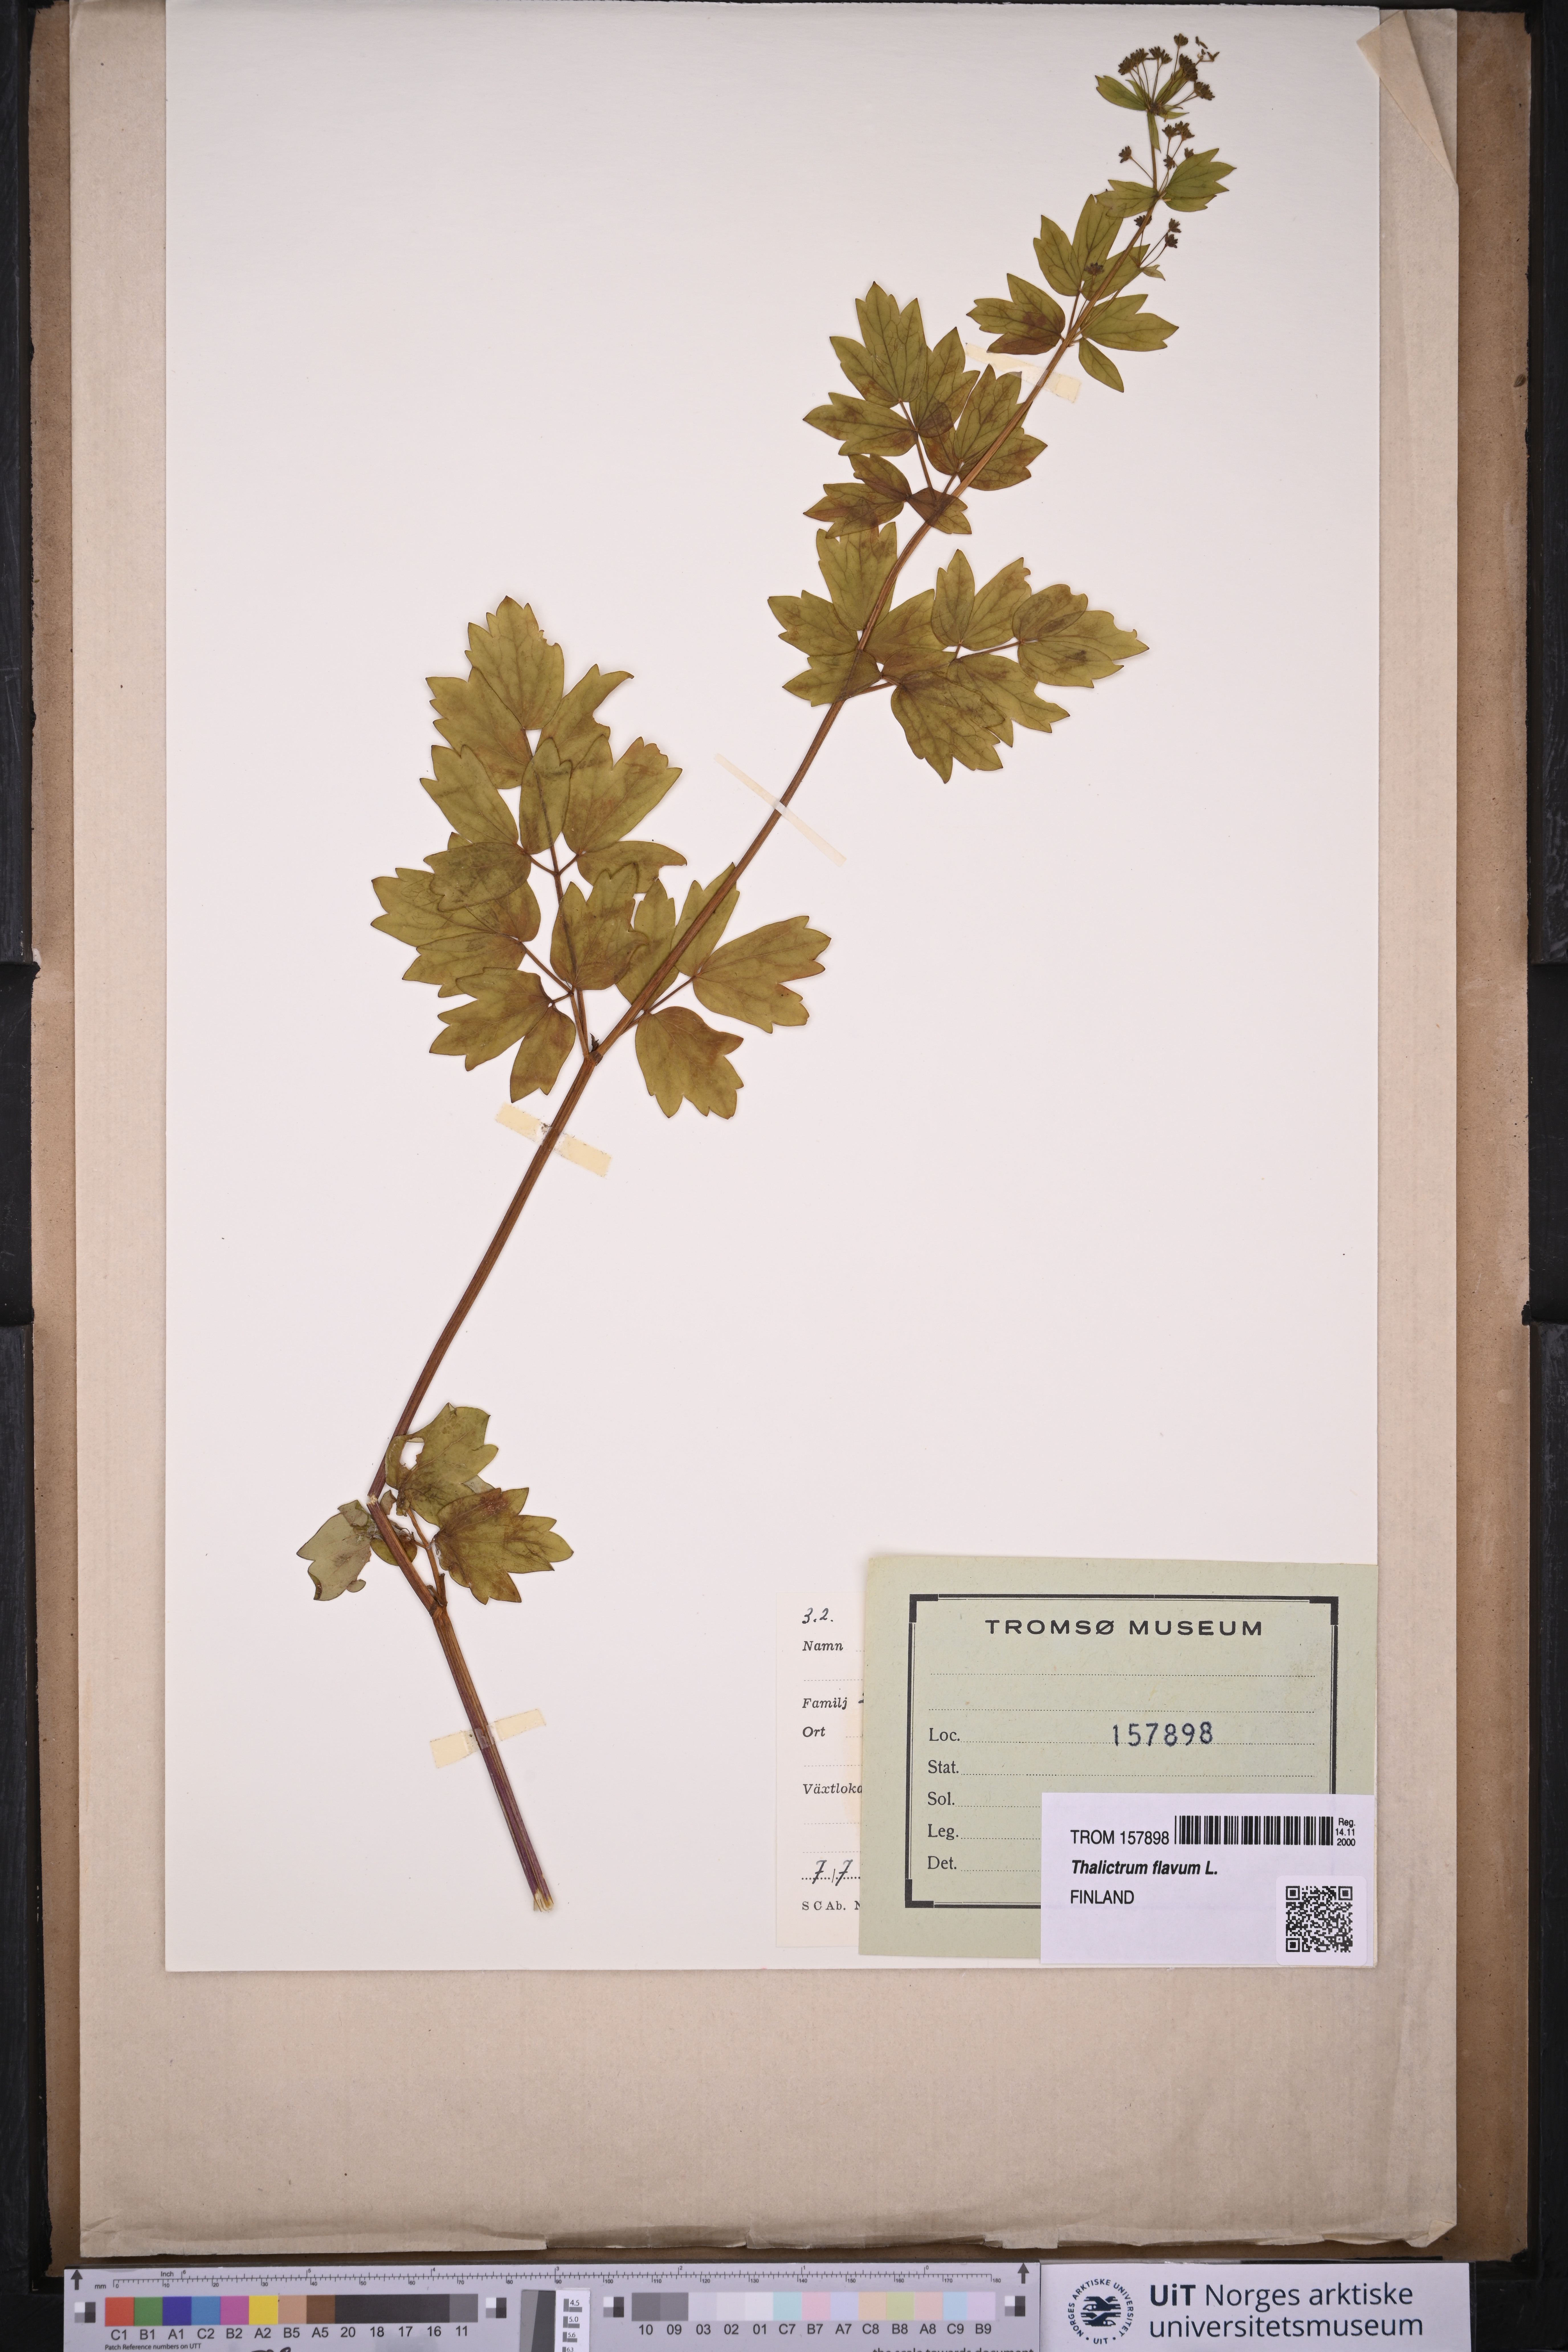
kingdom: Plantae
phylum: Tracheophyta
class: Magnoliopsida
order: Ranunculales
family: Ranunculaceae
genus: Thalictrum
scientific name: Thalictrum flavum
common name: Common meadow-rue
